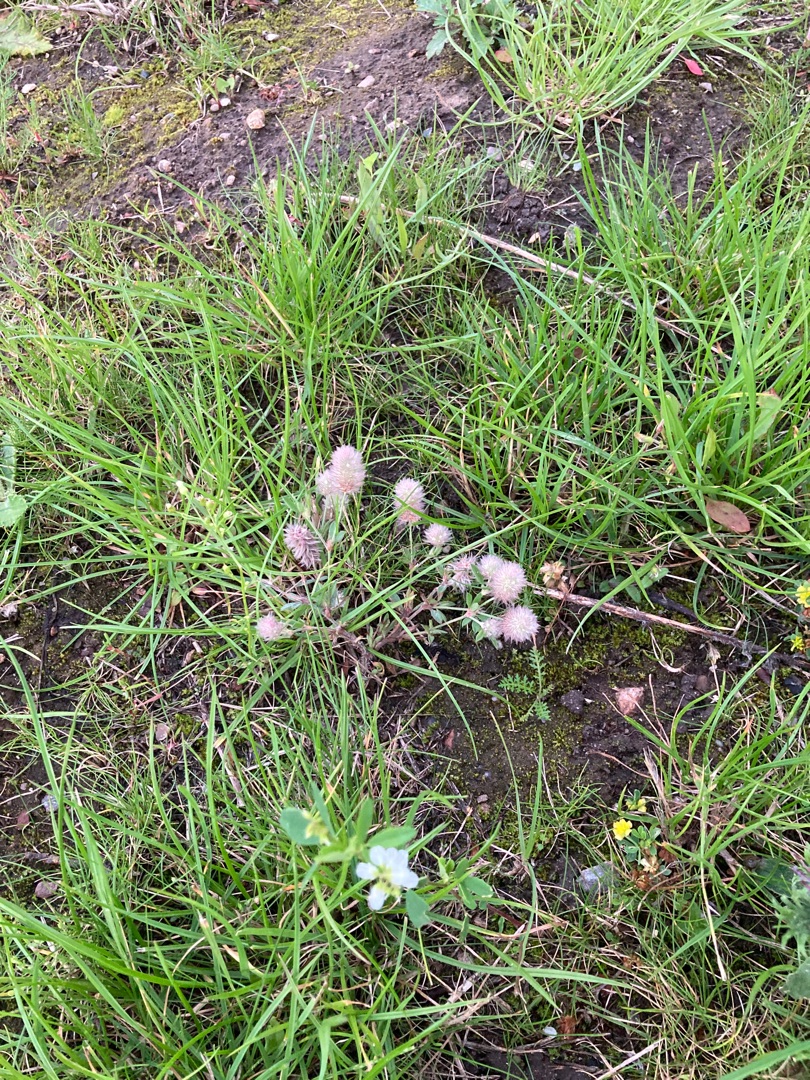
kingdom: Plantae
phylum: Tracheophyta
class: Magnoliopsida
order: Fabales
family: Fabaceae
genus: Trifolium
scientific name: Trifolium arvense
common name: Hare-kløver
